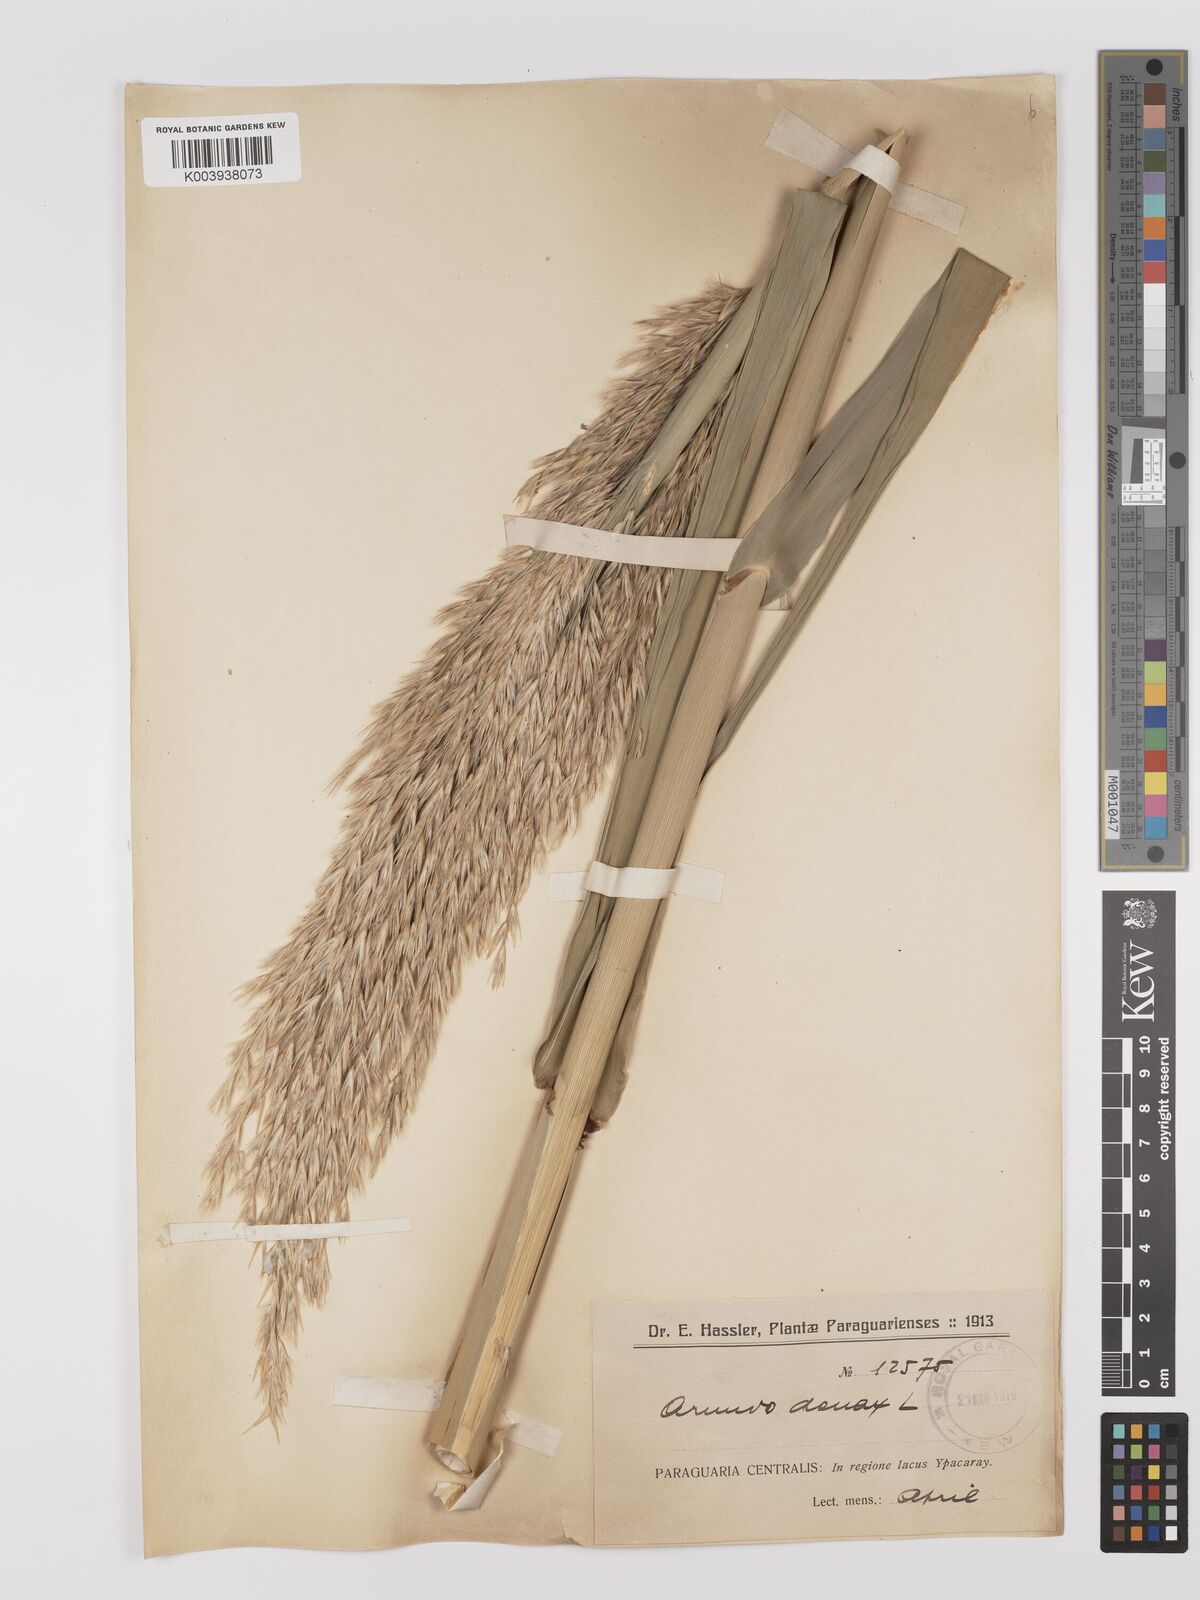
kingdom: Plantae
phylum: Tracheophyta
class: Liliopsida
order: Poales
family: Poaceae
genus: Arundo
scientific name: Arundo donax
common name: Giant reed
